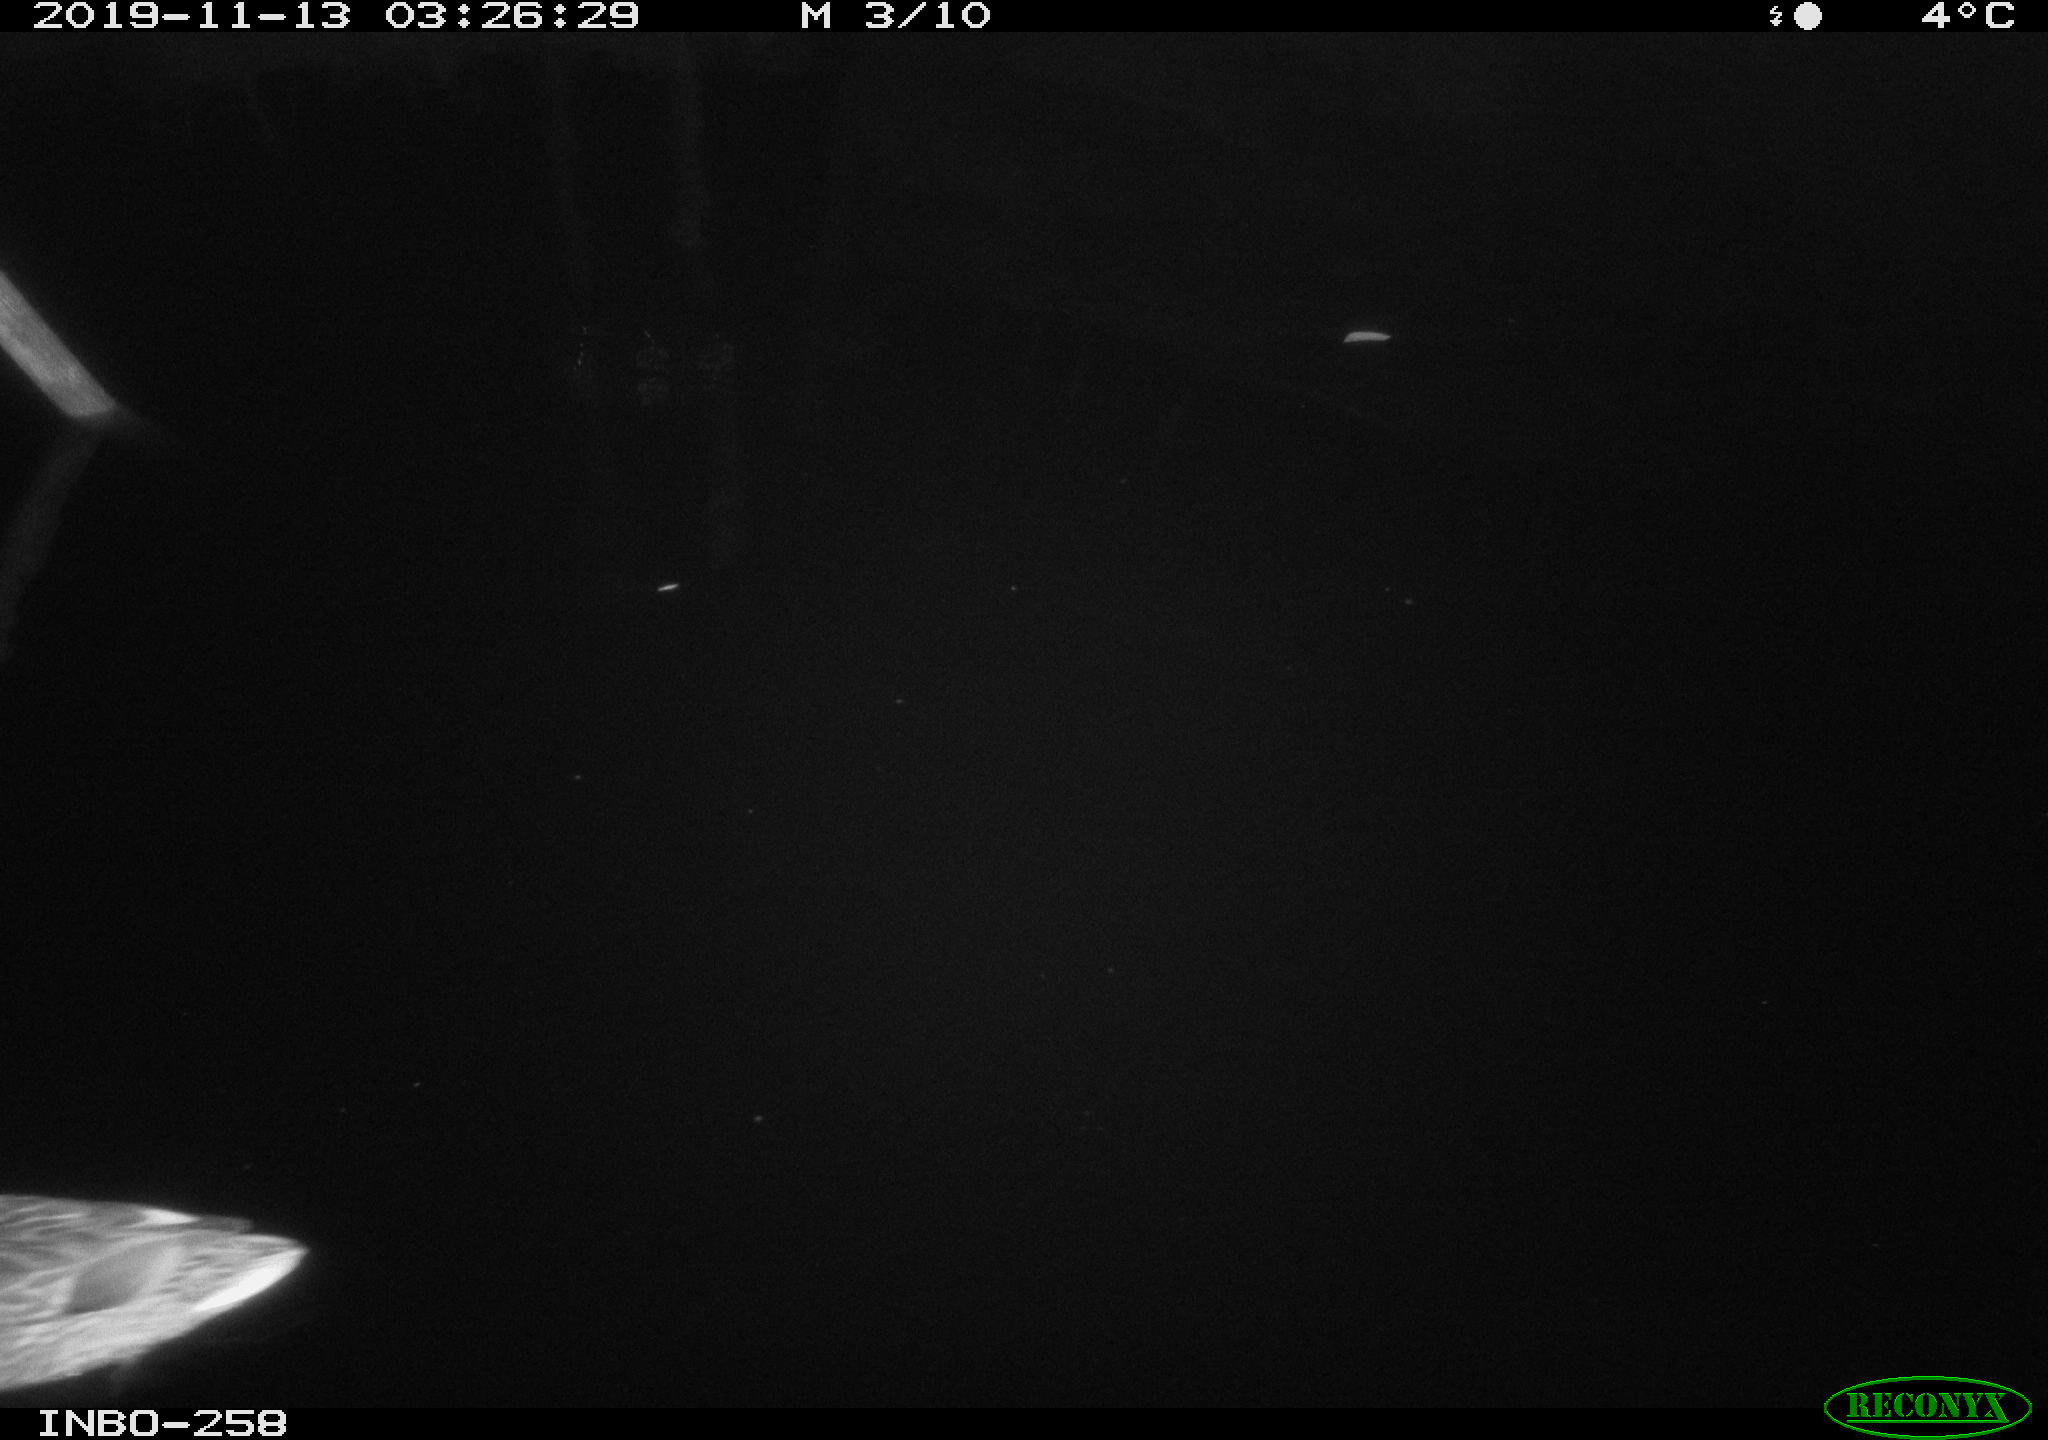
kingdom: Animalia
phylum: Chordata
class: Aves
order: Anseriformes
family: Anatidae
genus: Anas
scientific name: Anas platyrhynchos
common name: Mallard
